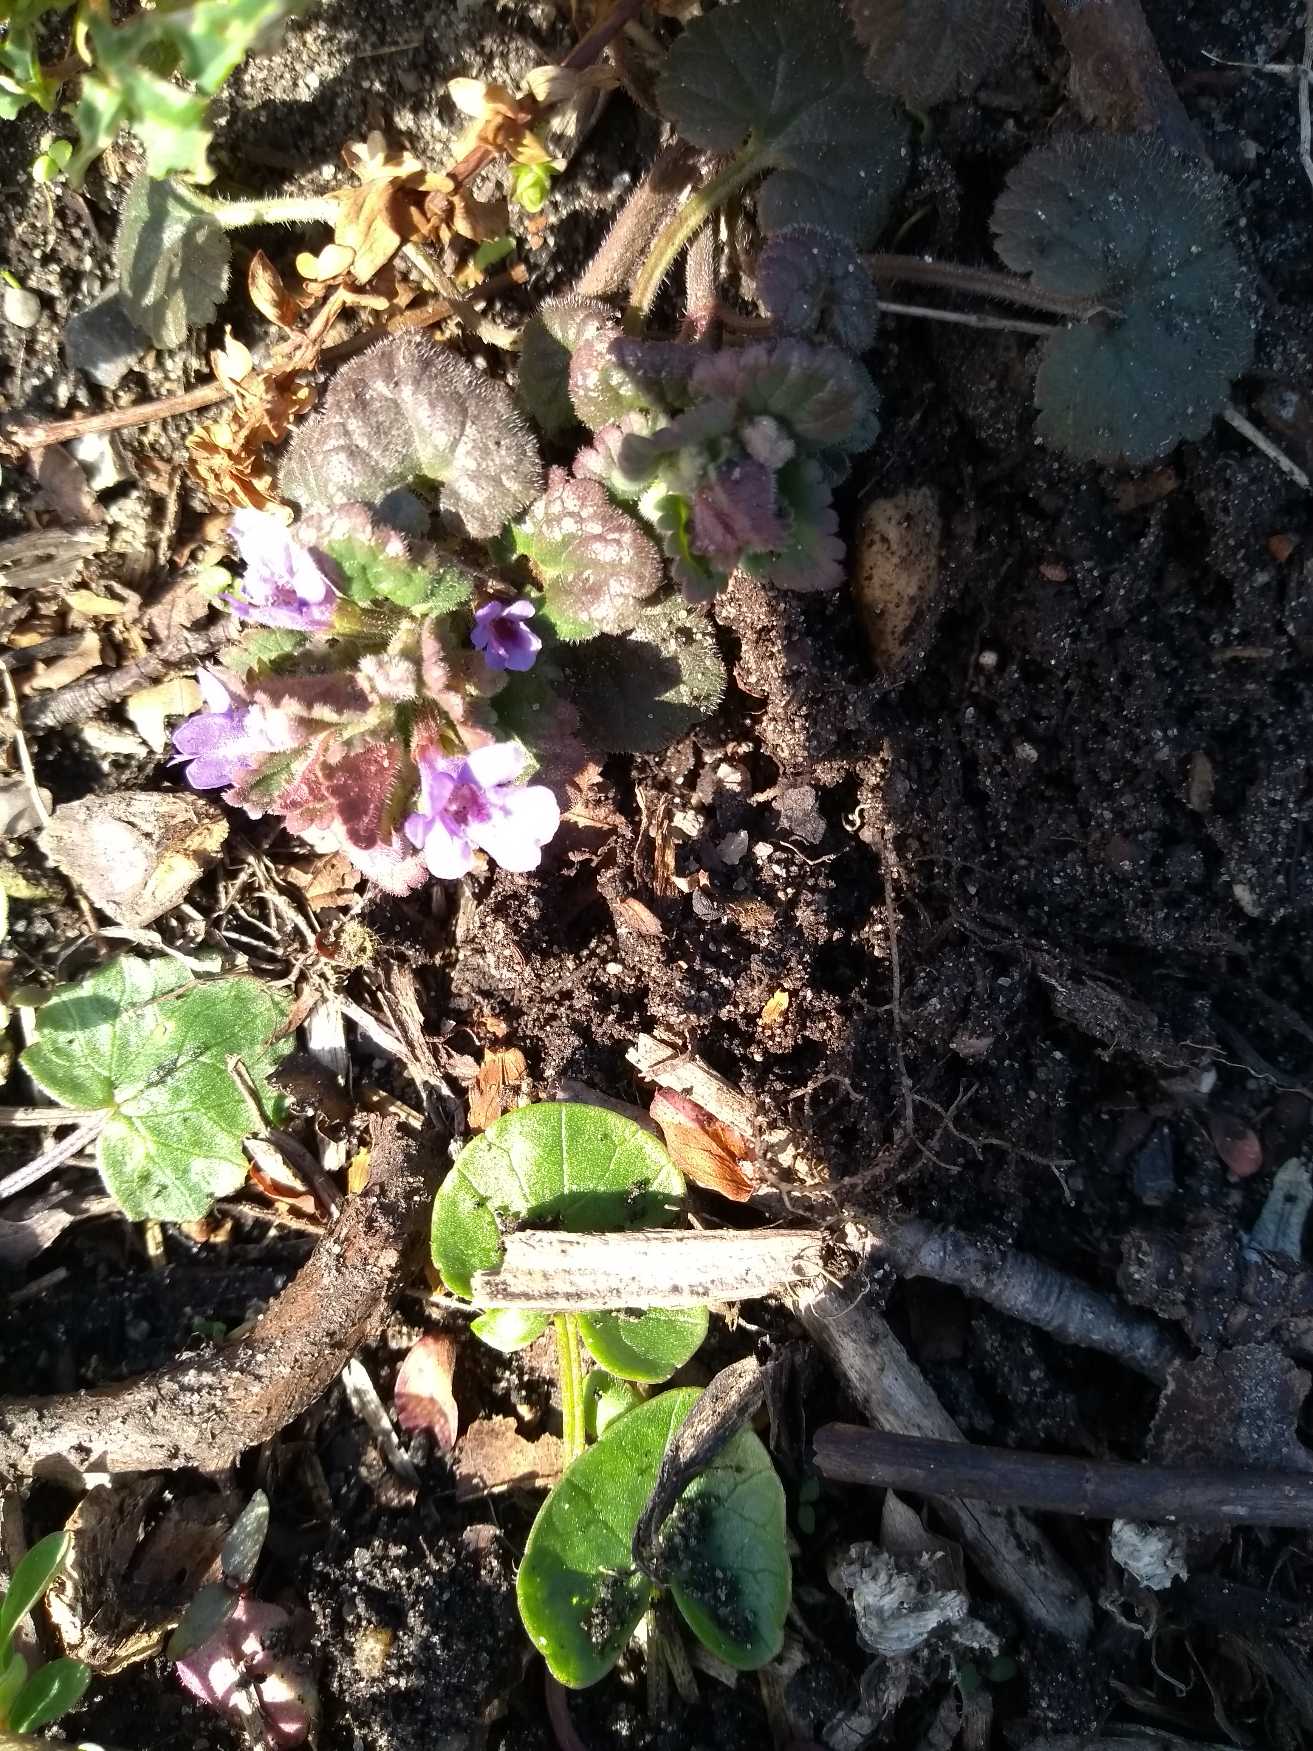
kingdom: Plantae
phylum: Tracheophyta
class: Magnoliopsida
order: Lamiales
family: Lamiaceae
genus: Glechoma
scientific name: Glechoma hederacea
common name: Korsknap
